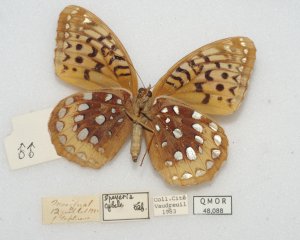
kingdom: Animalia
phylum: Arthropoda
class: Insecta
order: Lepidoptera
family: Nymphalidae
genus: Speyeria
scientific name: Speyeria cybele
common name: Great Spangled Fritillary
